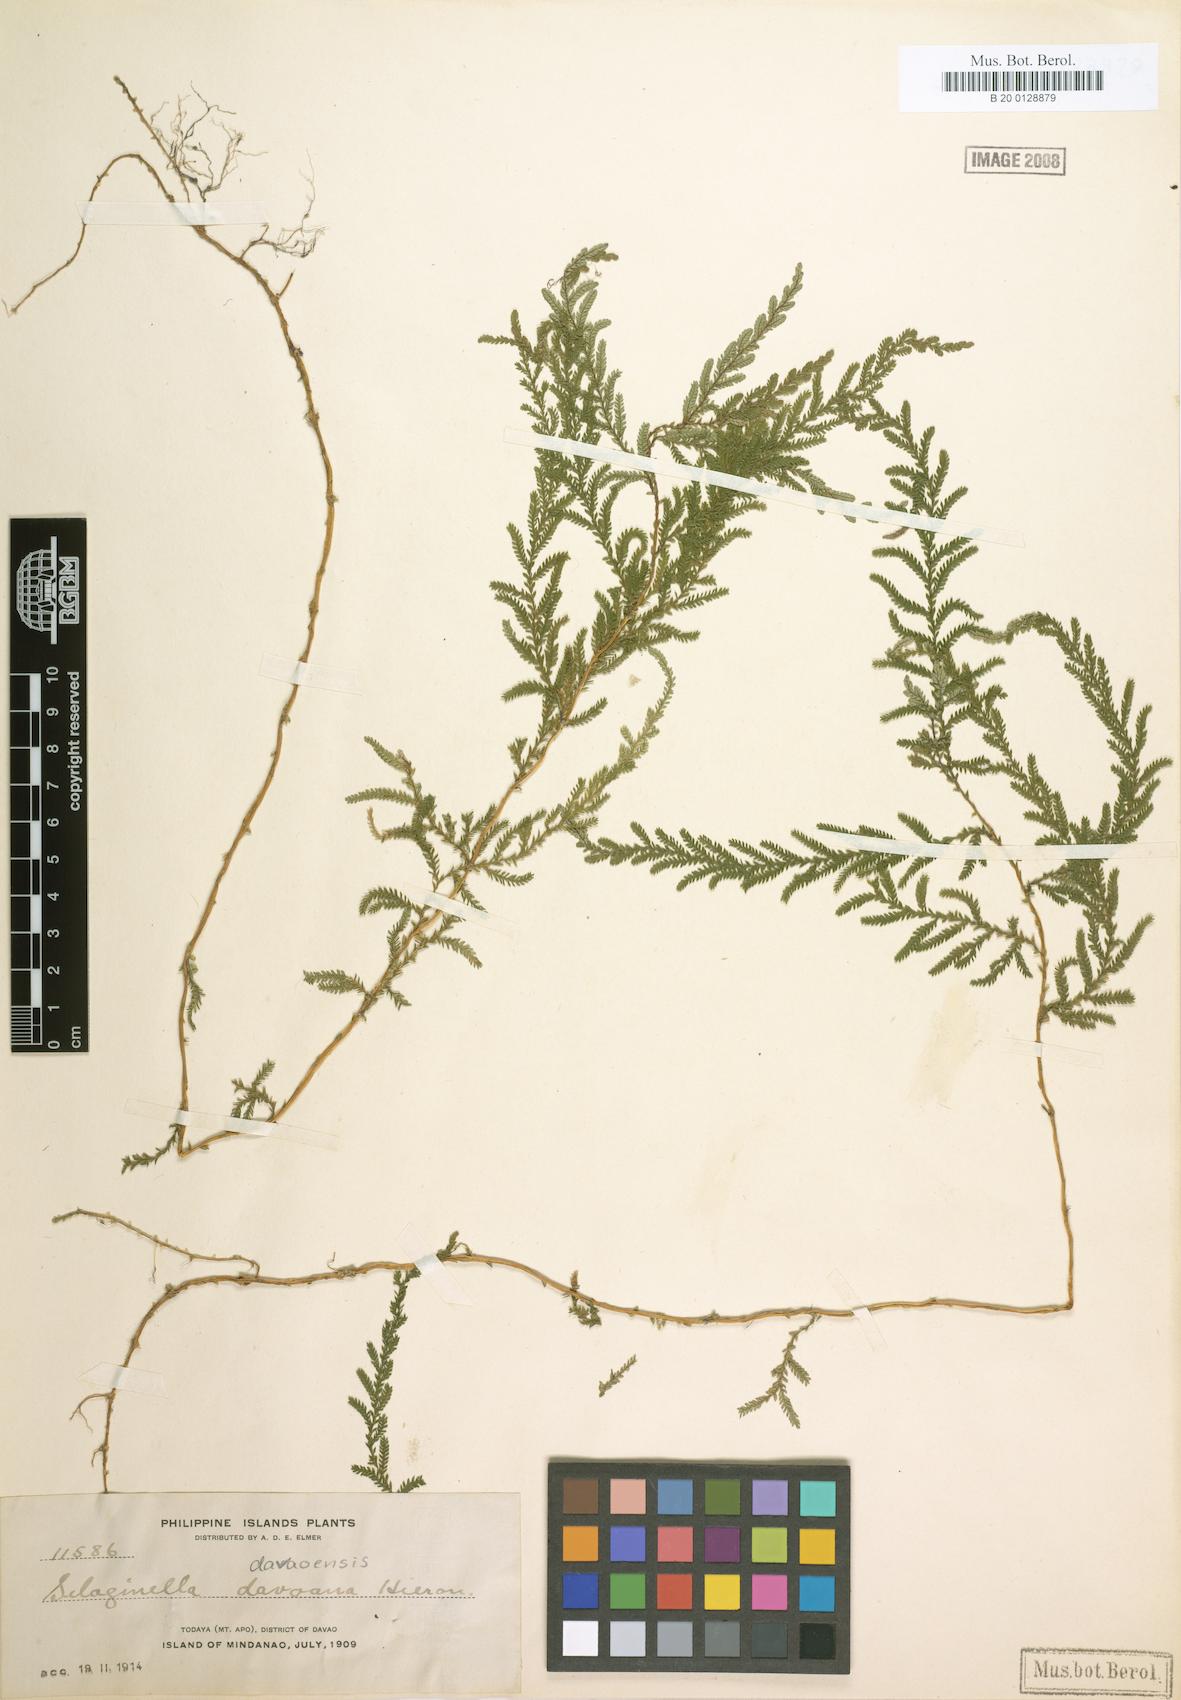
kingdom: Plantae
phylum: Tracheophyta
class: Lycopodiopsida
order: Selaginellales
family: Selaginellaceae
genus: Selaginella
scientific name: Selaginella delicatula
